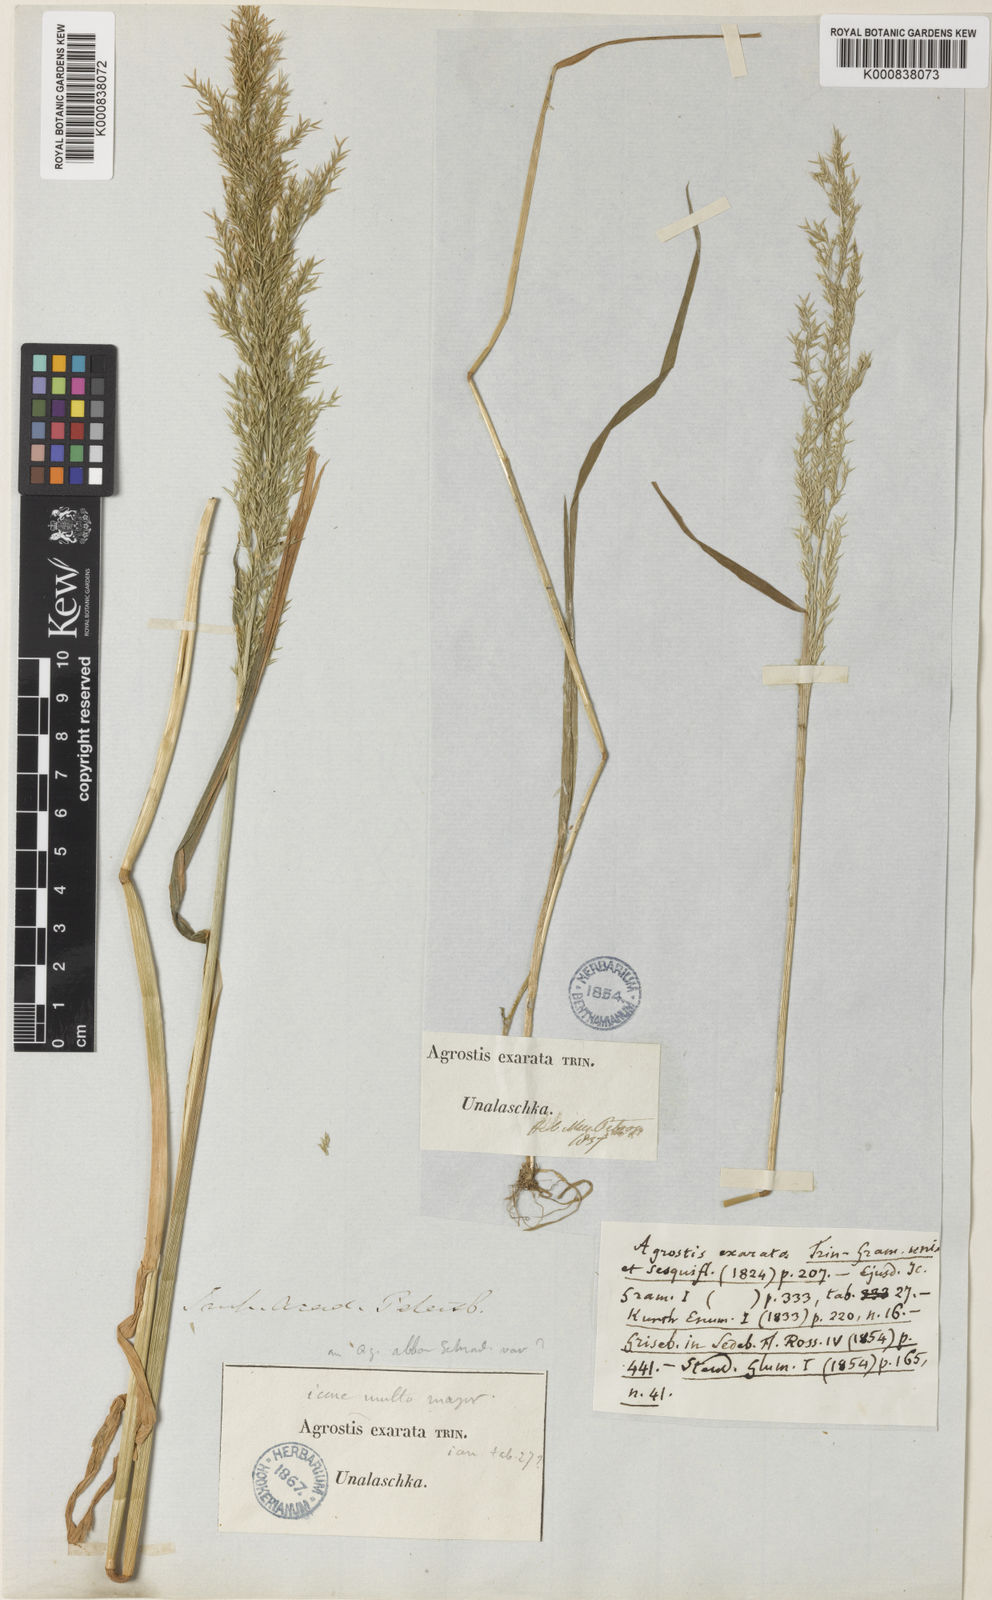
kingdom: Plantae
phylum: Tracheophyta
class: Liliopsida
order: Poales
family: Poaceae
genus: Agrostis
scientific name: Agrostis exarata
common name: Spike bent
